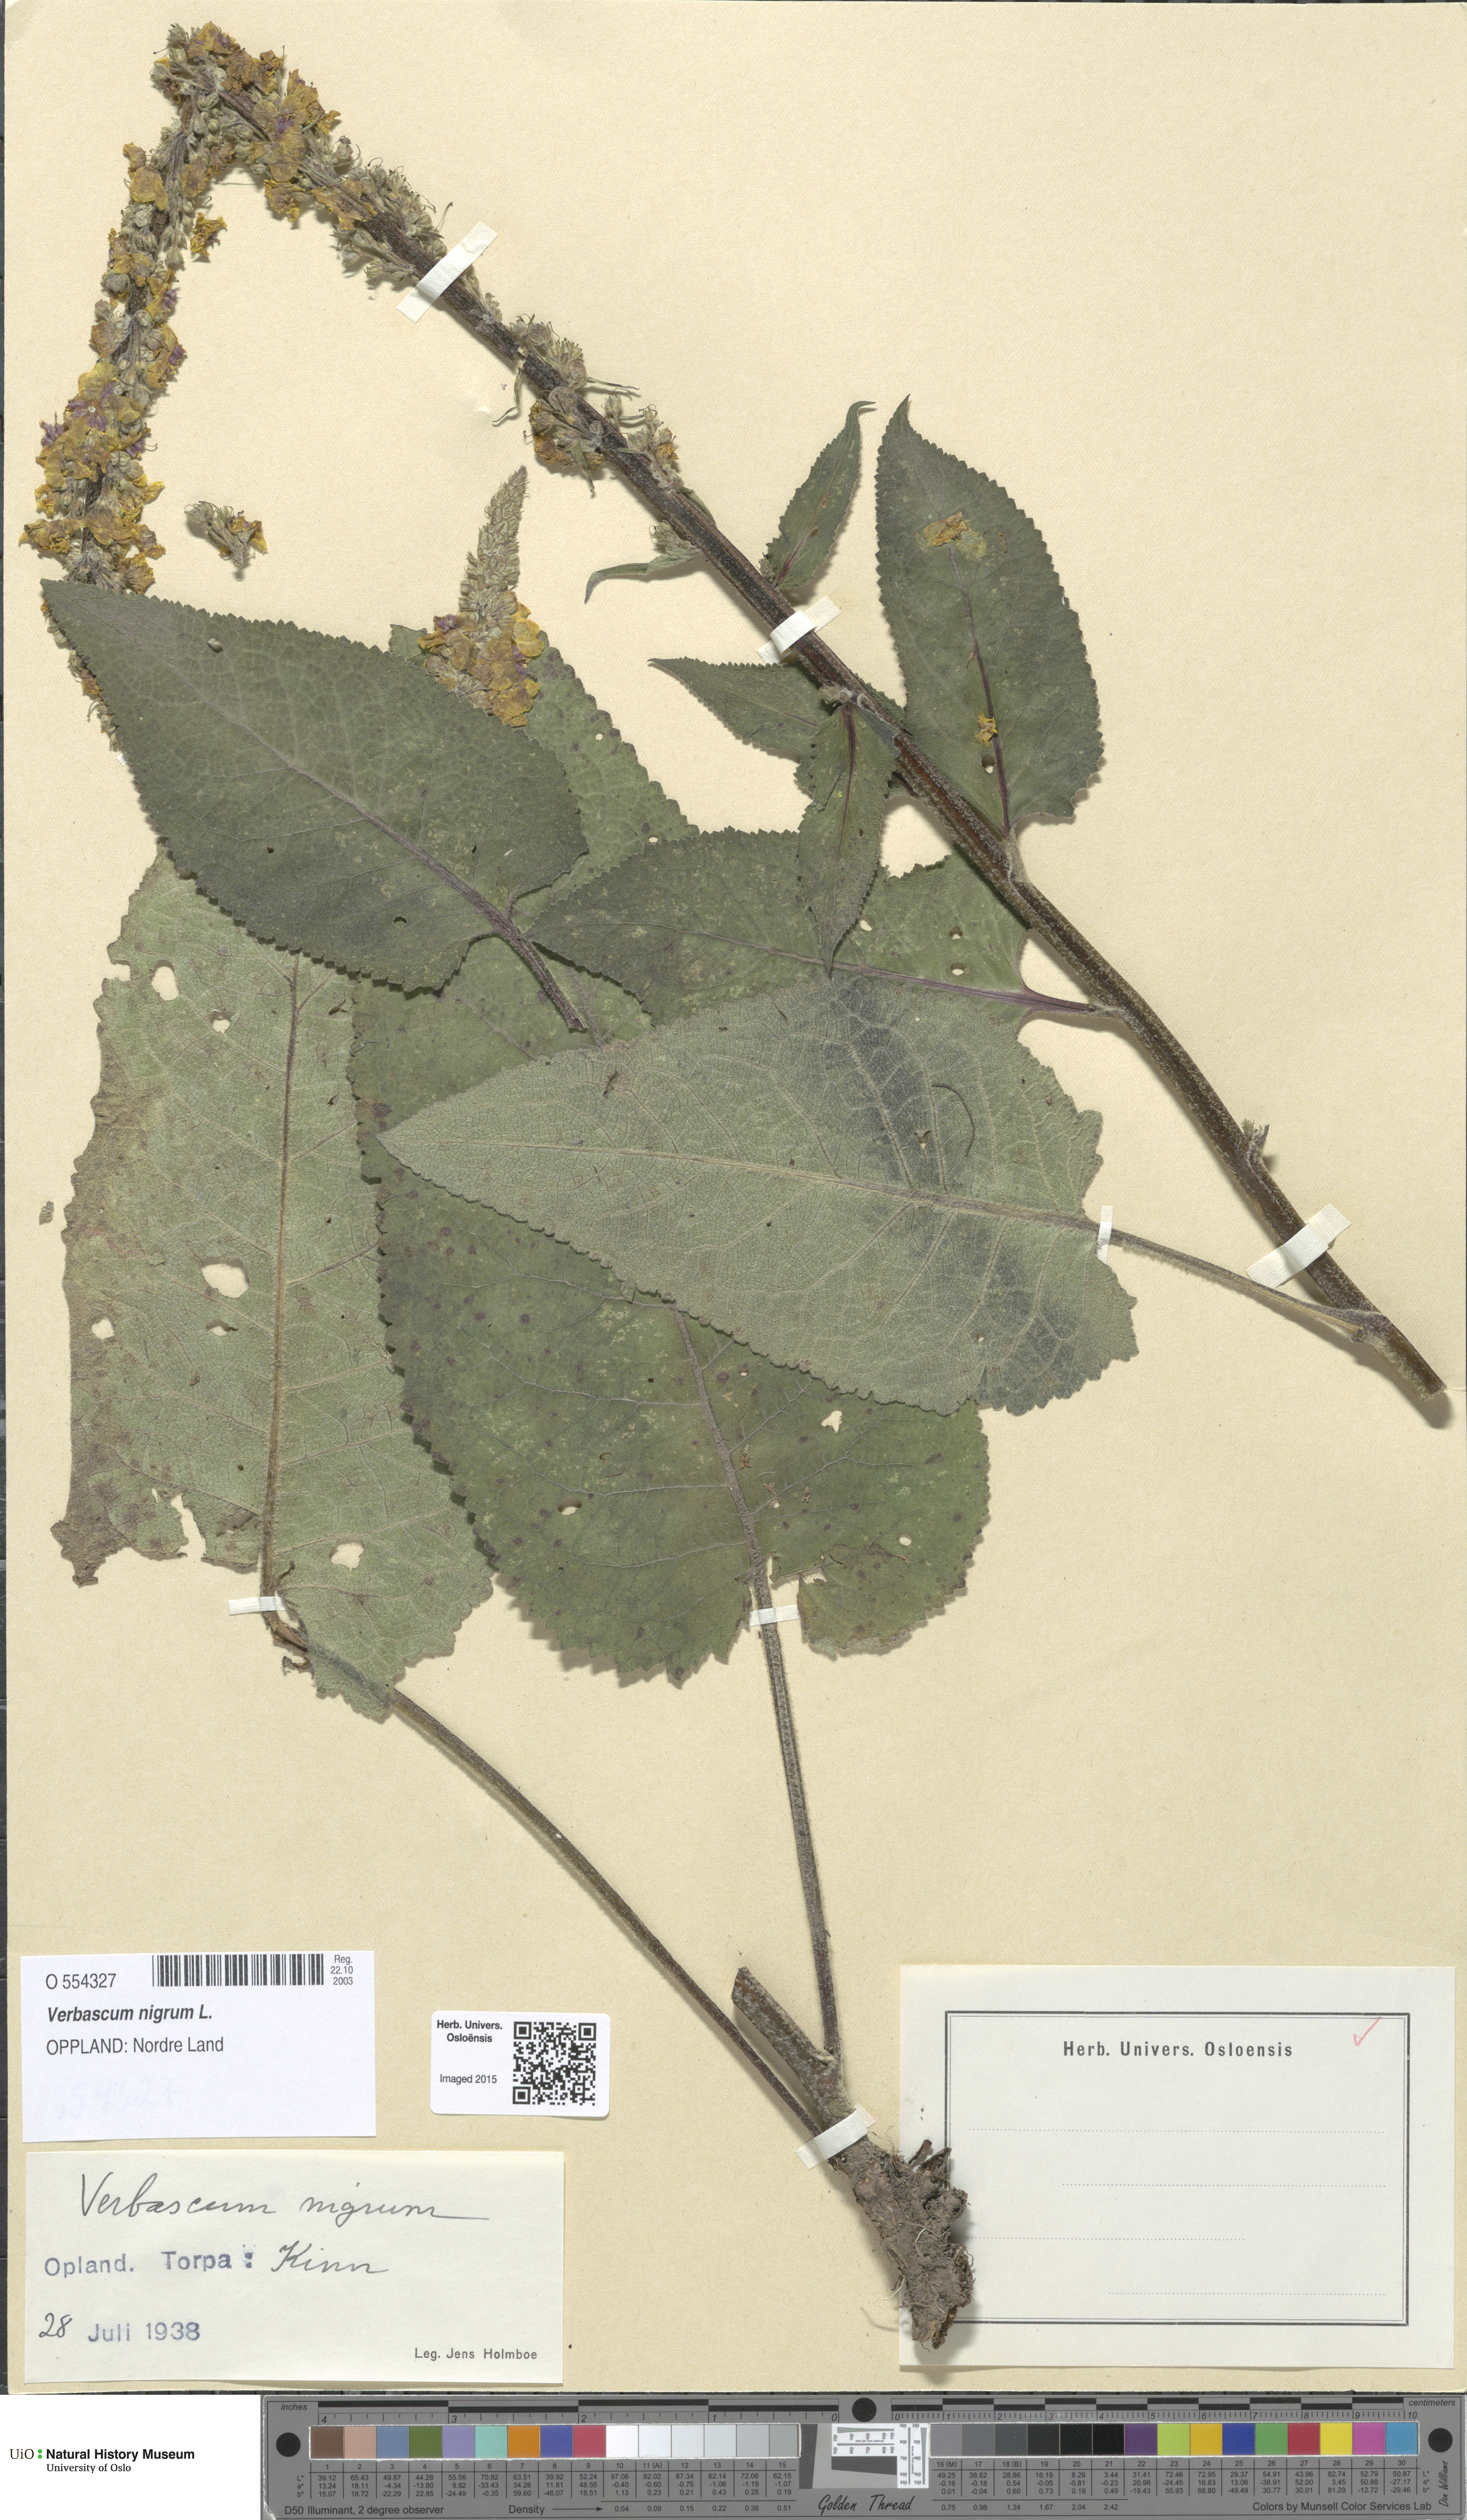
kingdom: Plantae
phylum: Tracheophyta
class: Magnoliopsida
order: Lamiales
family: Scrophulariaceae
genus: Verbascum
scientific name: Verbascum nigrum
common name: Dark mullein
